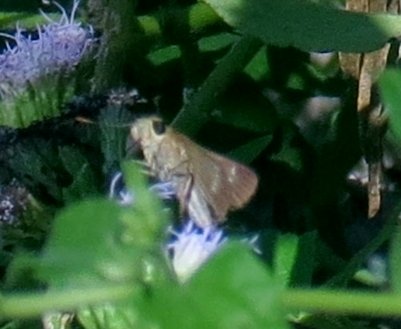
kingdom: Animalia
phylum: Arthropoda
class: Insecta
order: Lepidoptera
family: Hesperiidae
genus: Turesis
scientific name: Turesis lucas
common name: Purple-washed Skipper
